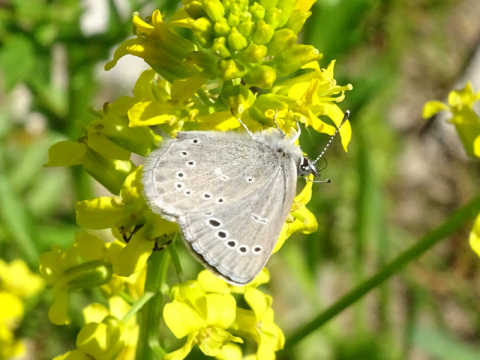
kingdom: Animalia
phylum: Arthropoda
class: Insecta
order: Lepidoptera
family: Lycaenidae
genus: Glaucopsyche
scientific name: Glaucopsyche lygdamus
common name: Silvery Blue
